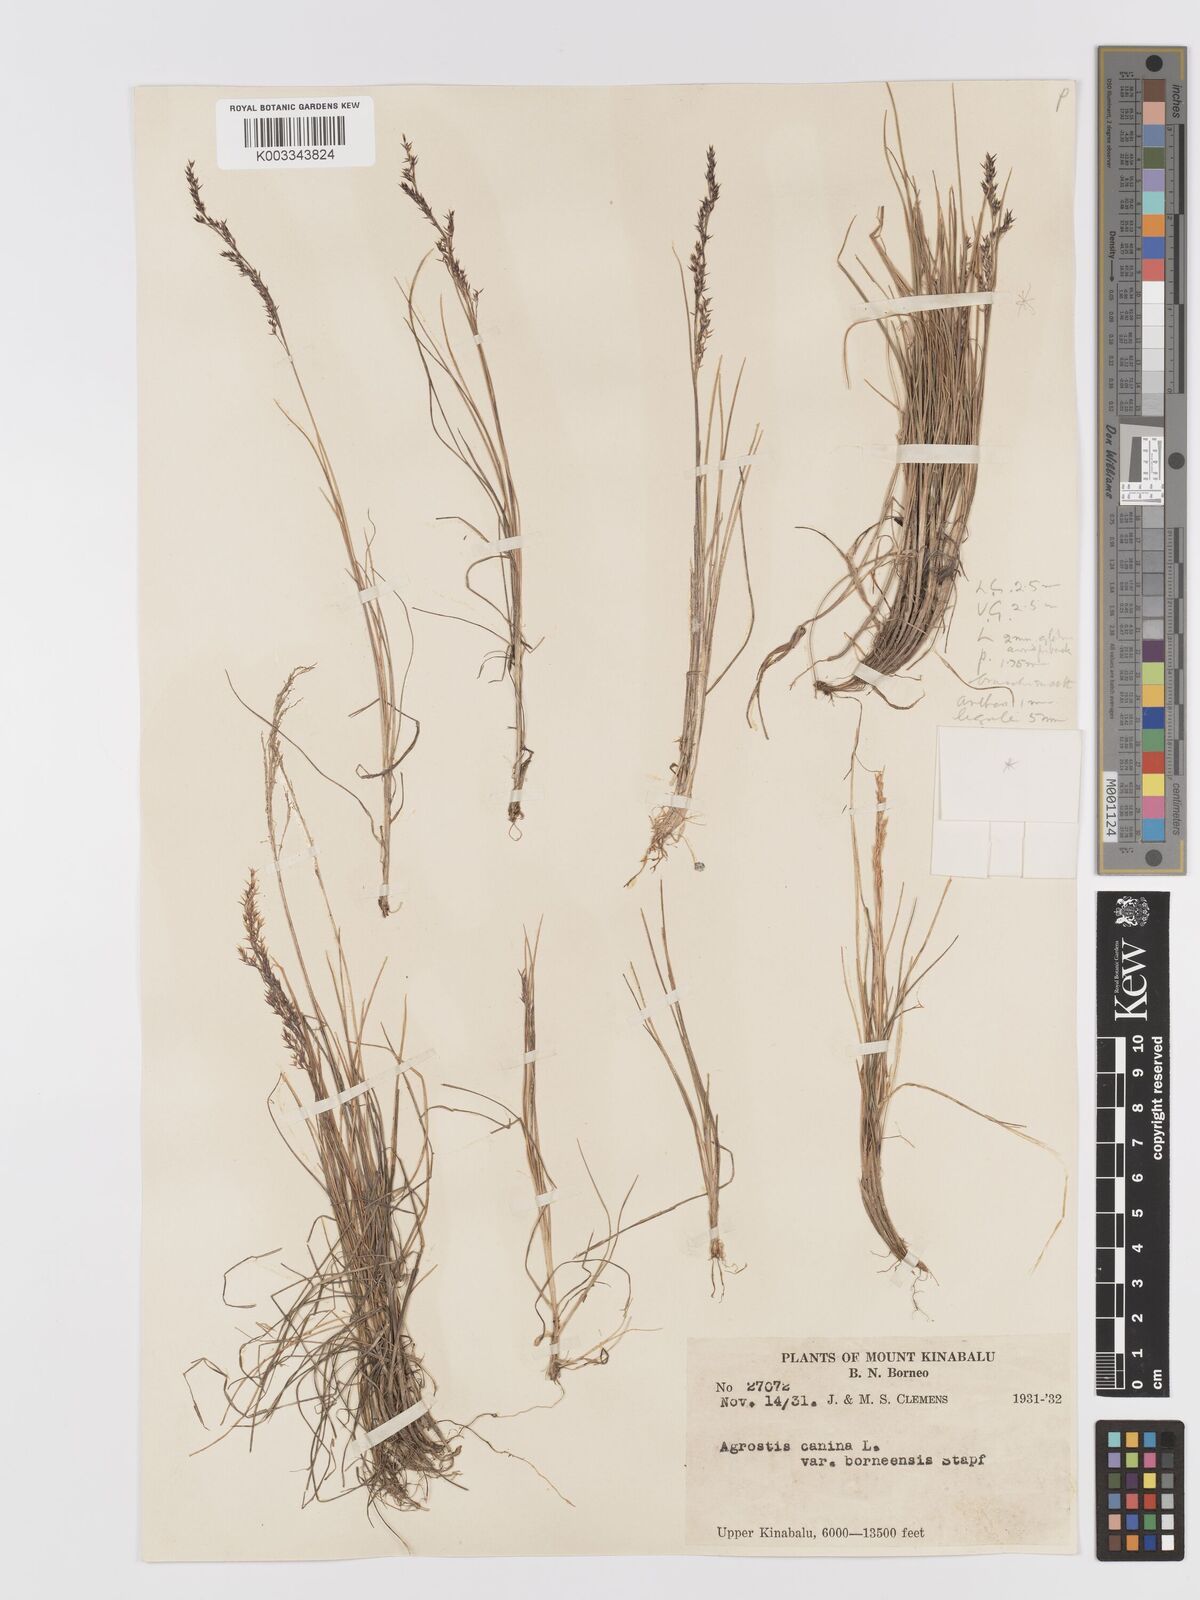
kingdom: Plantae
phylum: Tracheophyta
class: Liliopsida
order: Poales
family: Poaceae
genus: Agrostis
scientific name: Agrostis infirma
